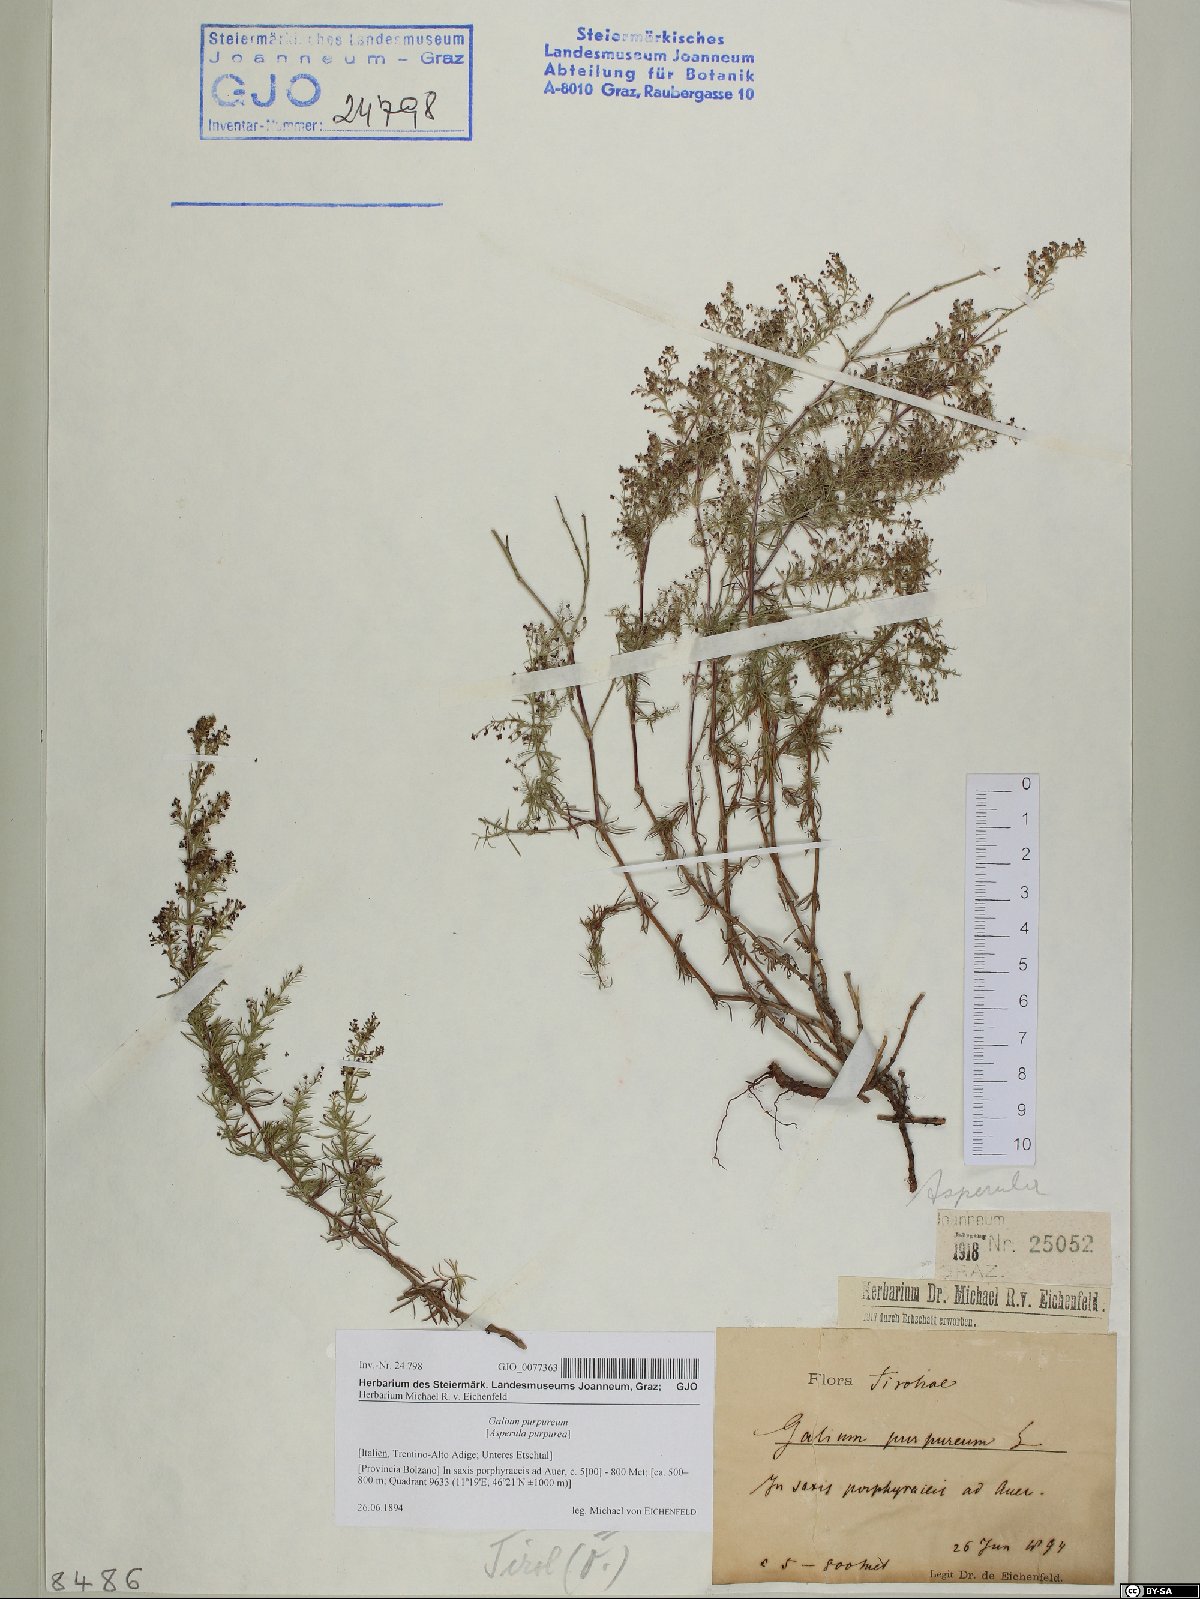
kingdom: Plantae
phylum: Tracheophyta
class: Magnoliopsida
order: Gentianales
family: Rubiaceae
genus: Thliphthisa
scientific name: Thliphthisa purpurea
